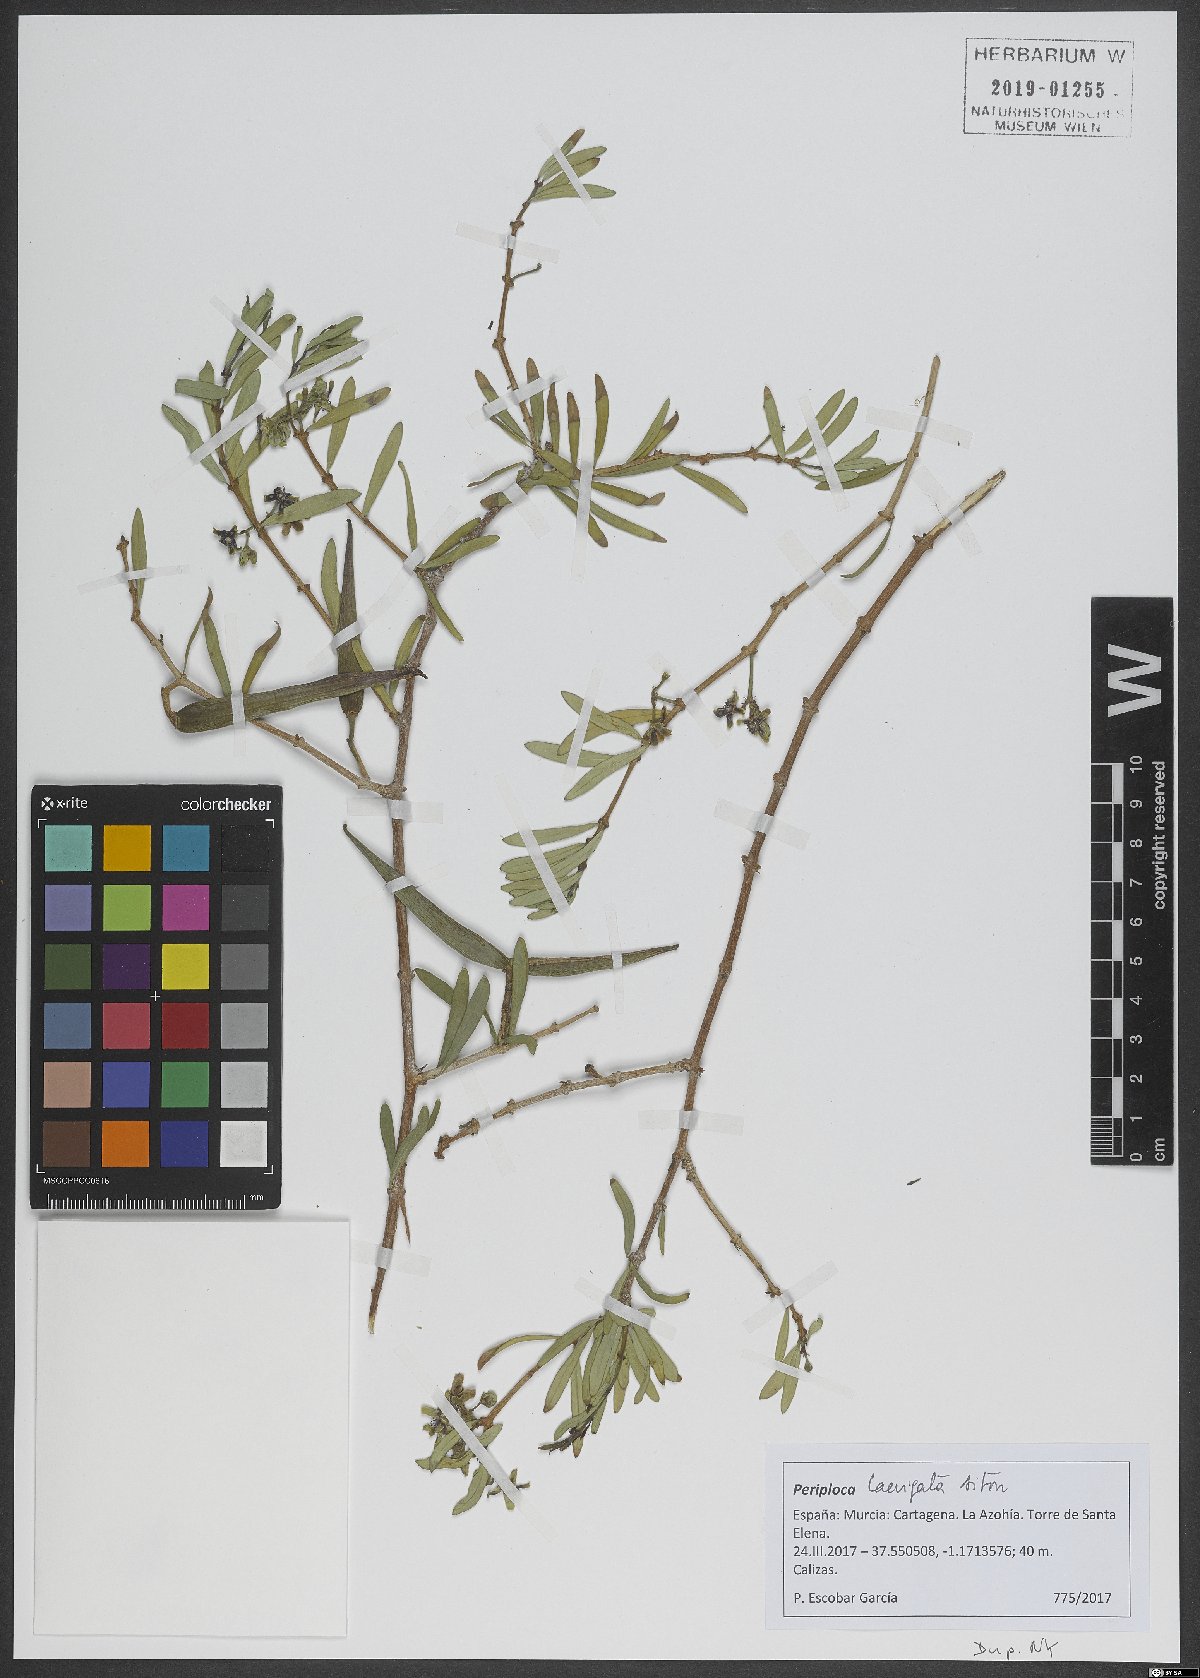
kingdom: Plantae
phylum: Tracheophyta
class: Magnoliopsida
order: Gentianales
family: Apocynaceae
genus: Periploca
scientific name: Periploca laevigata
